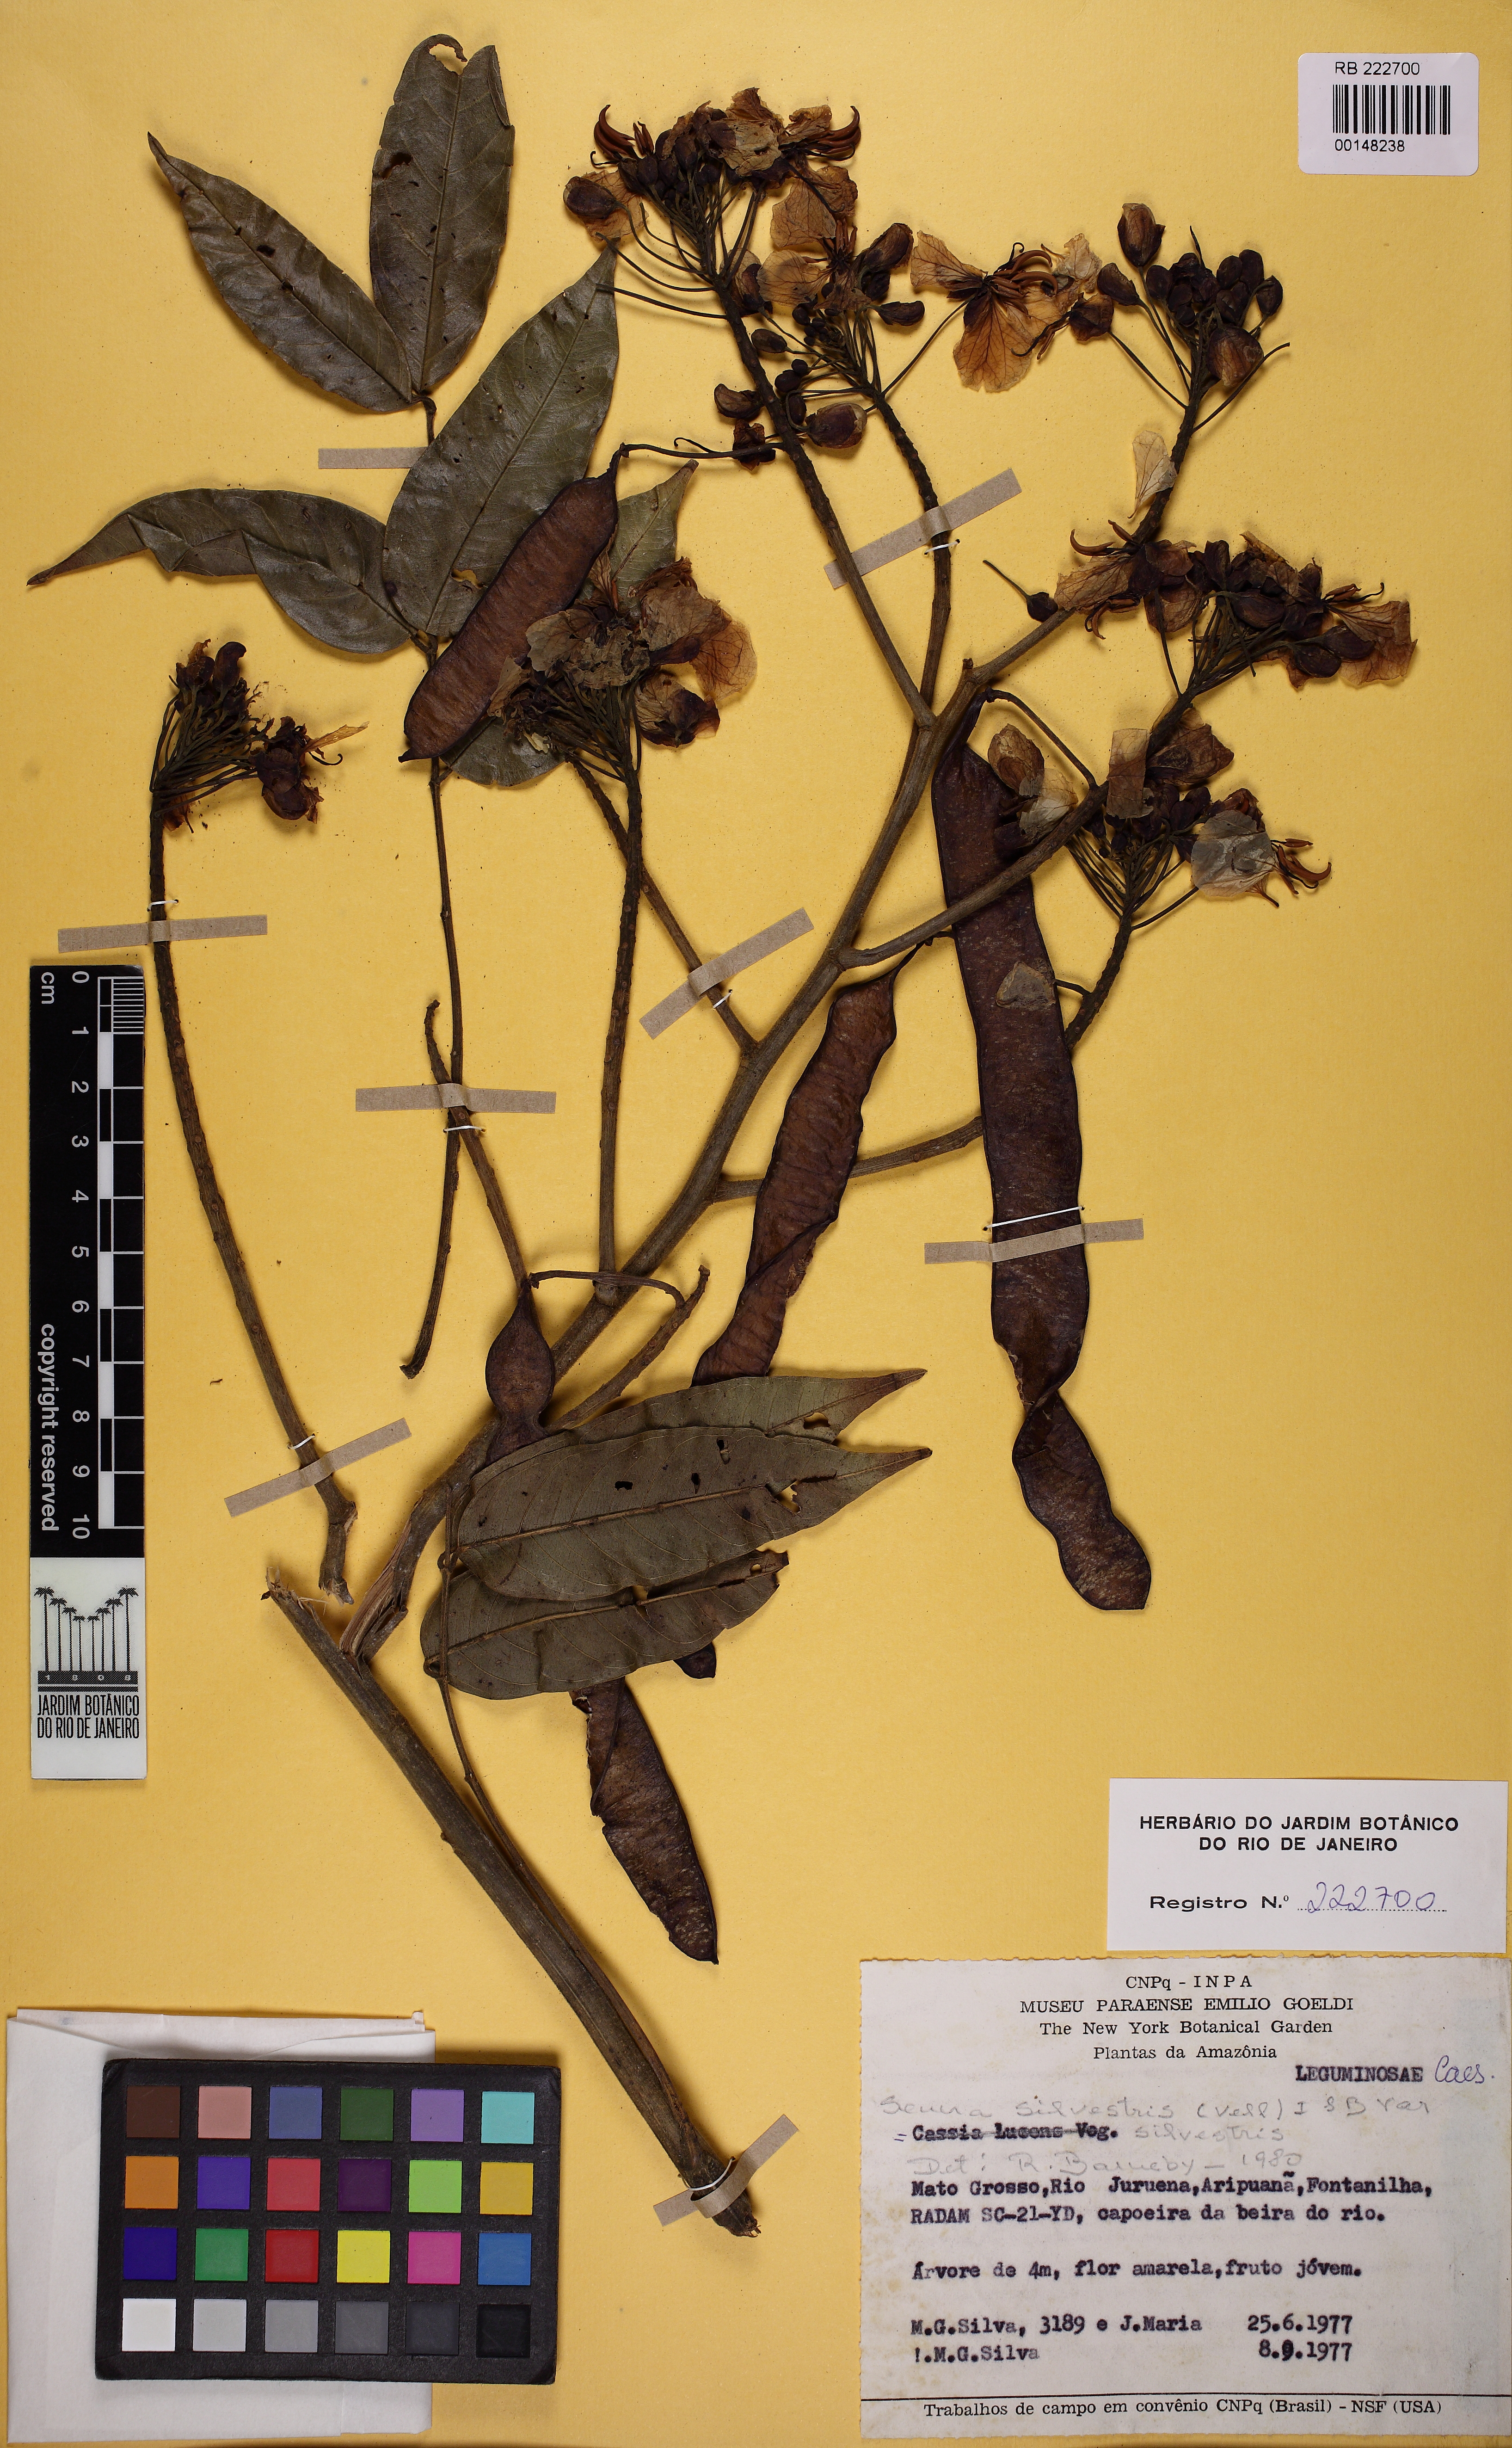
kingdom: Plantae
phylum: Tracheophyta
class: Magnoliopsida
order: Fabales
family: Fabaceae
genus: Senna
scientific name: Senna silvestris
